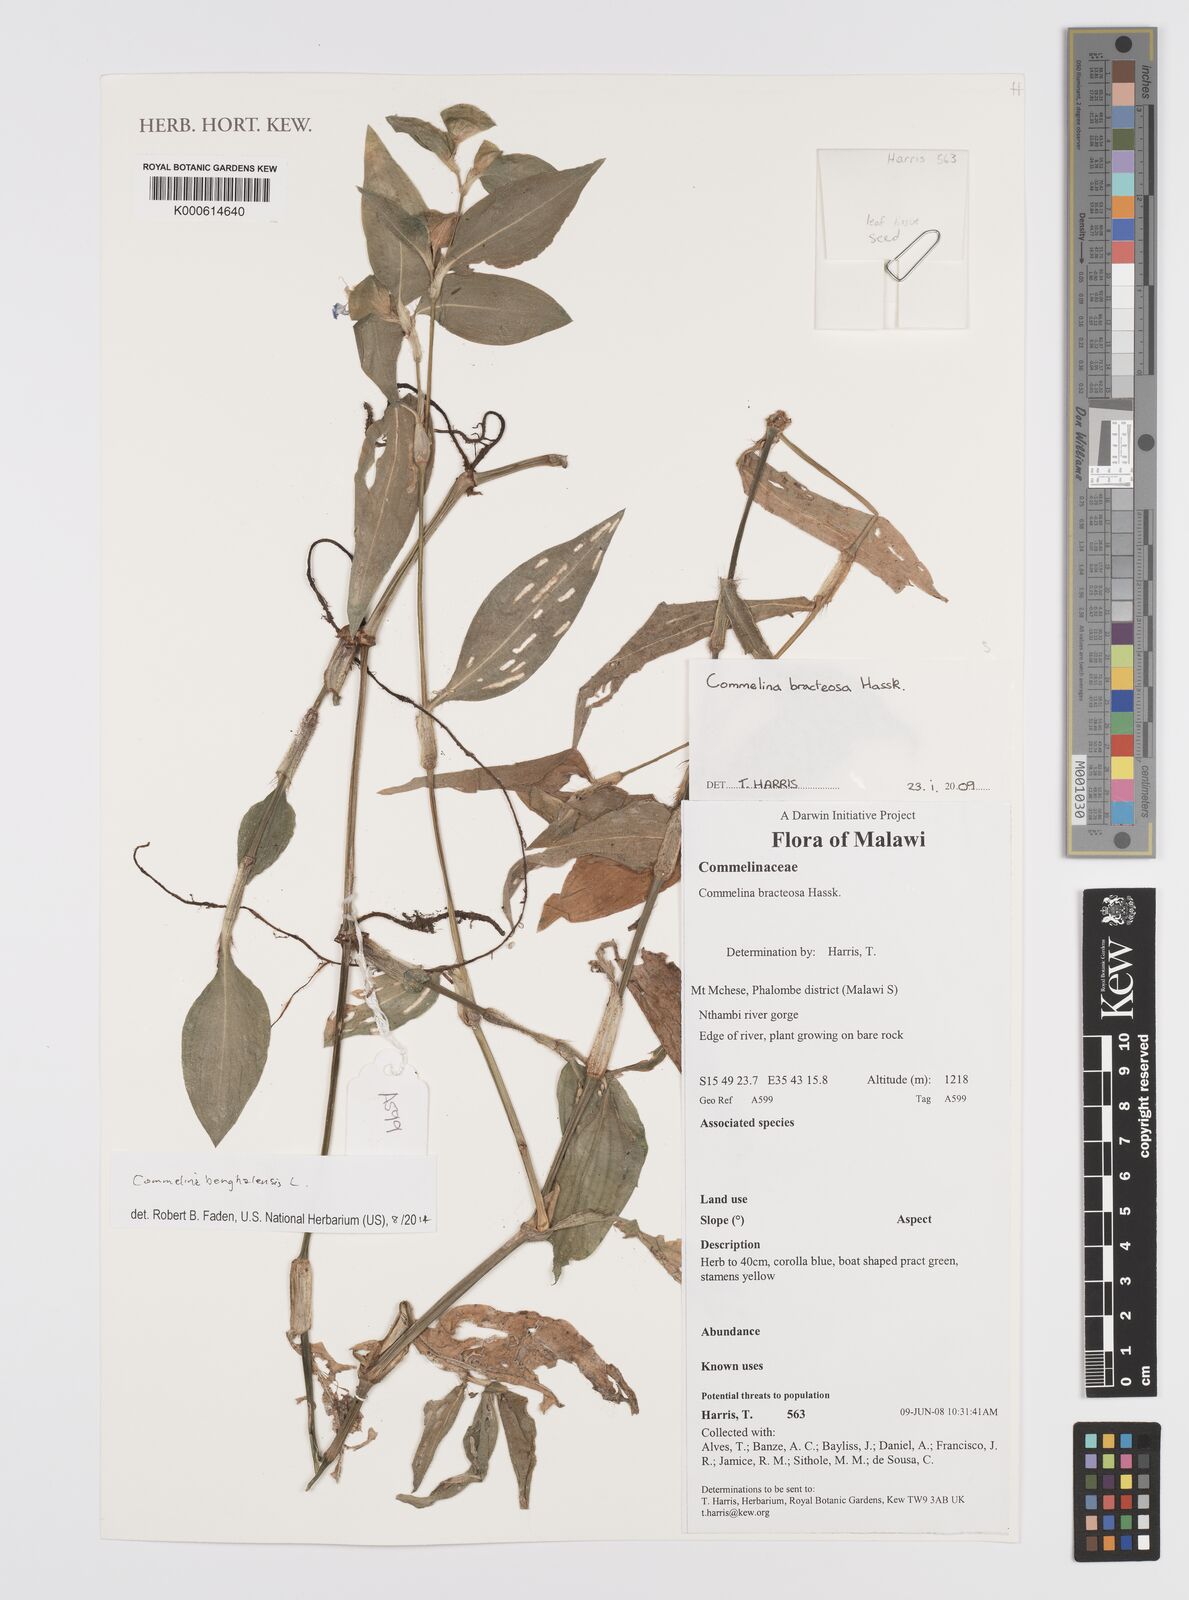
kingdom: Plantae
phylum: Tracheophyta
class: Liliopsida
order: Commelinales
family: Commelinaceae
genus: Commelina
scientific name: Commelina bracteosa
